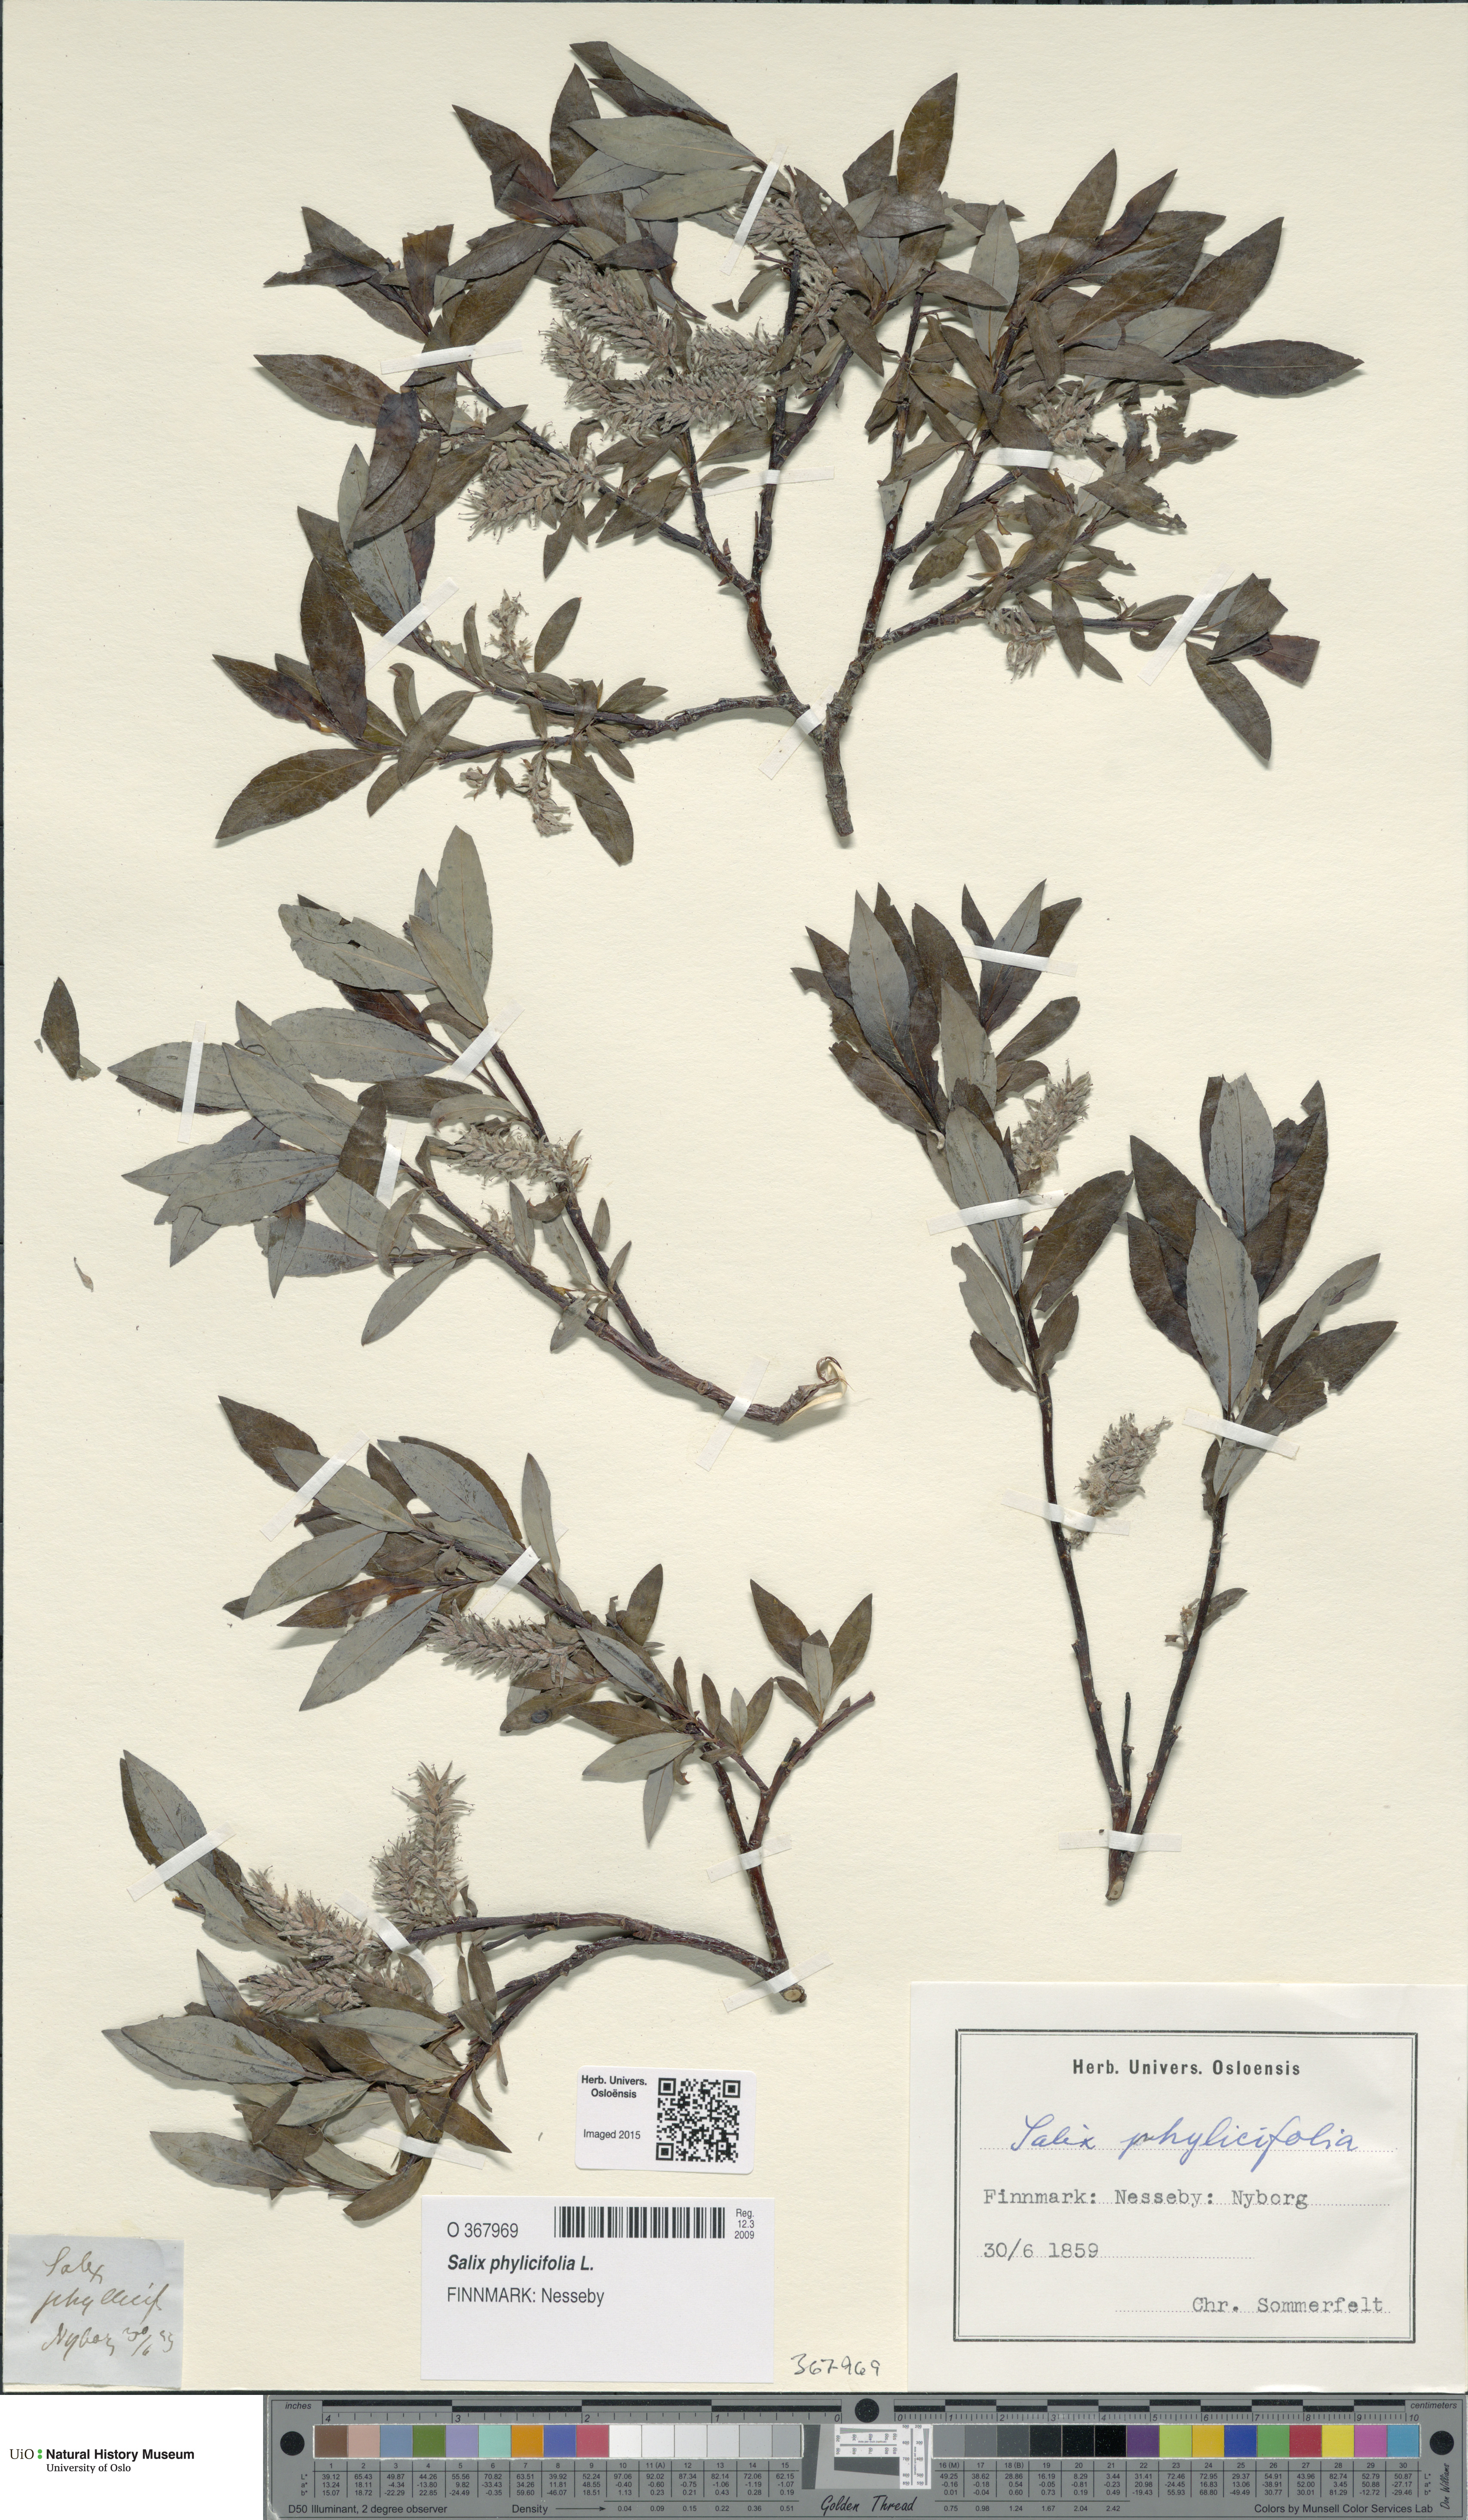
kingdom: Plantae
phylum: Tracheophyta
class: Magnoliopsida
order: Malpighiales
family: Salicaceae
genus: Salix
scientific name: Salix phylicifolia
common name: Tea-leaved willow
